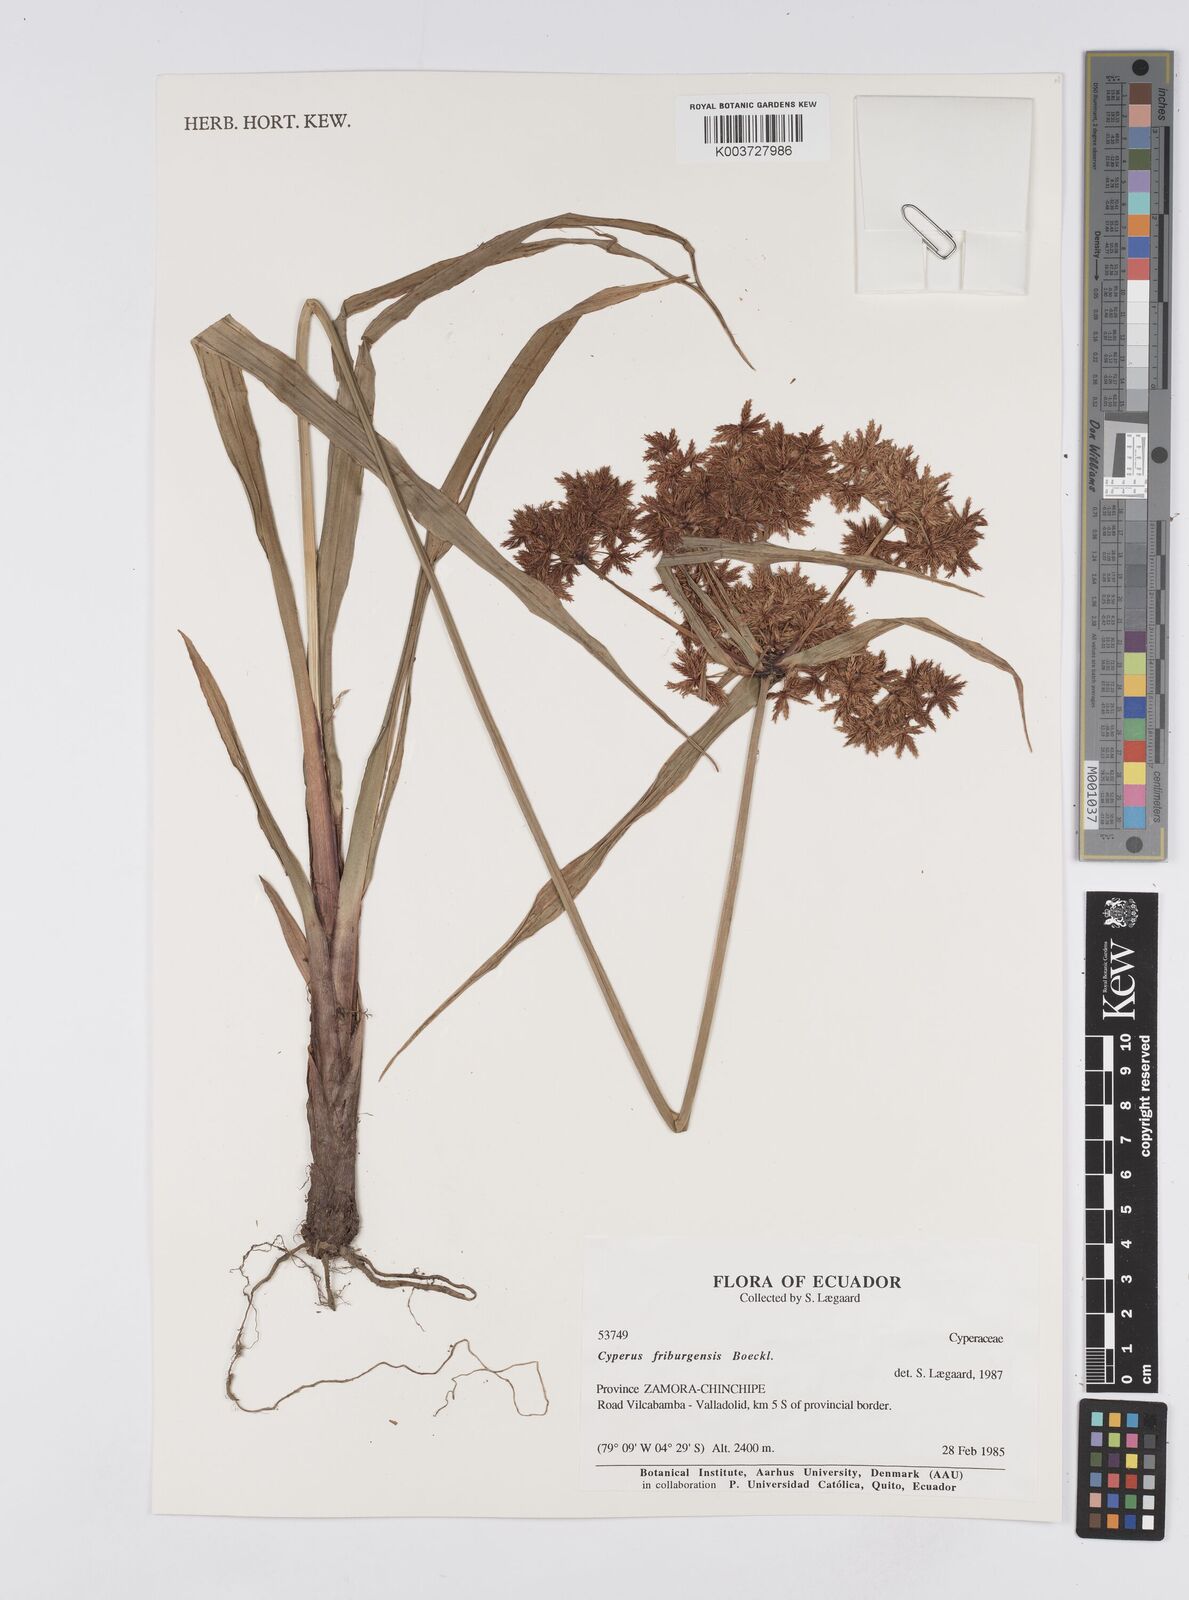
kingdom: Plantae
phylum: Tracheophyta
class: Liliopsida
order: Poales
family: Cyperaceae
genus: Cyperus
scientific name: Cyperus friburgensis
